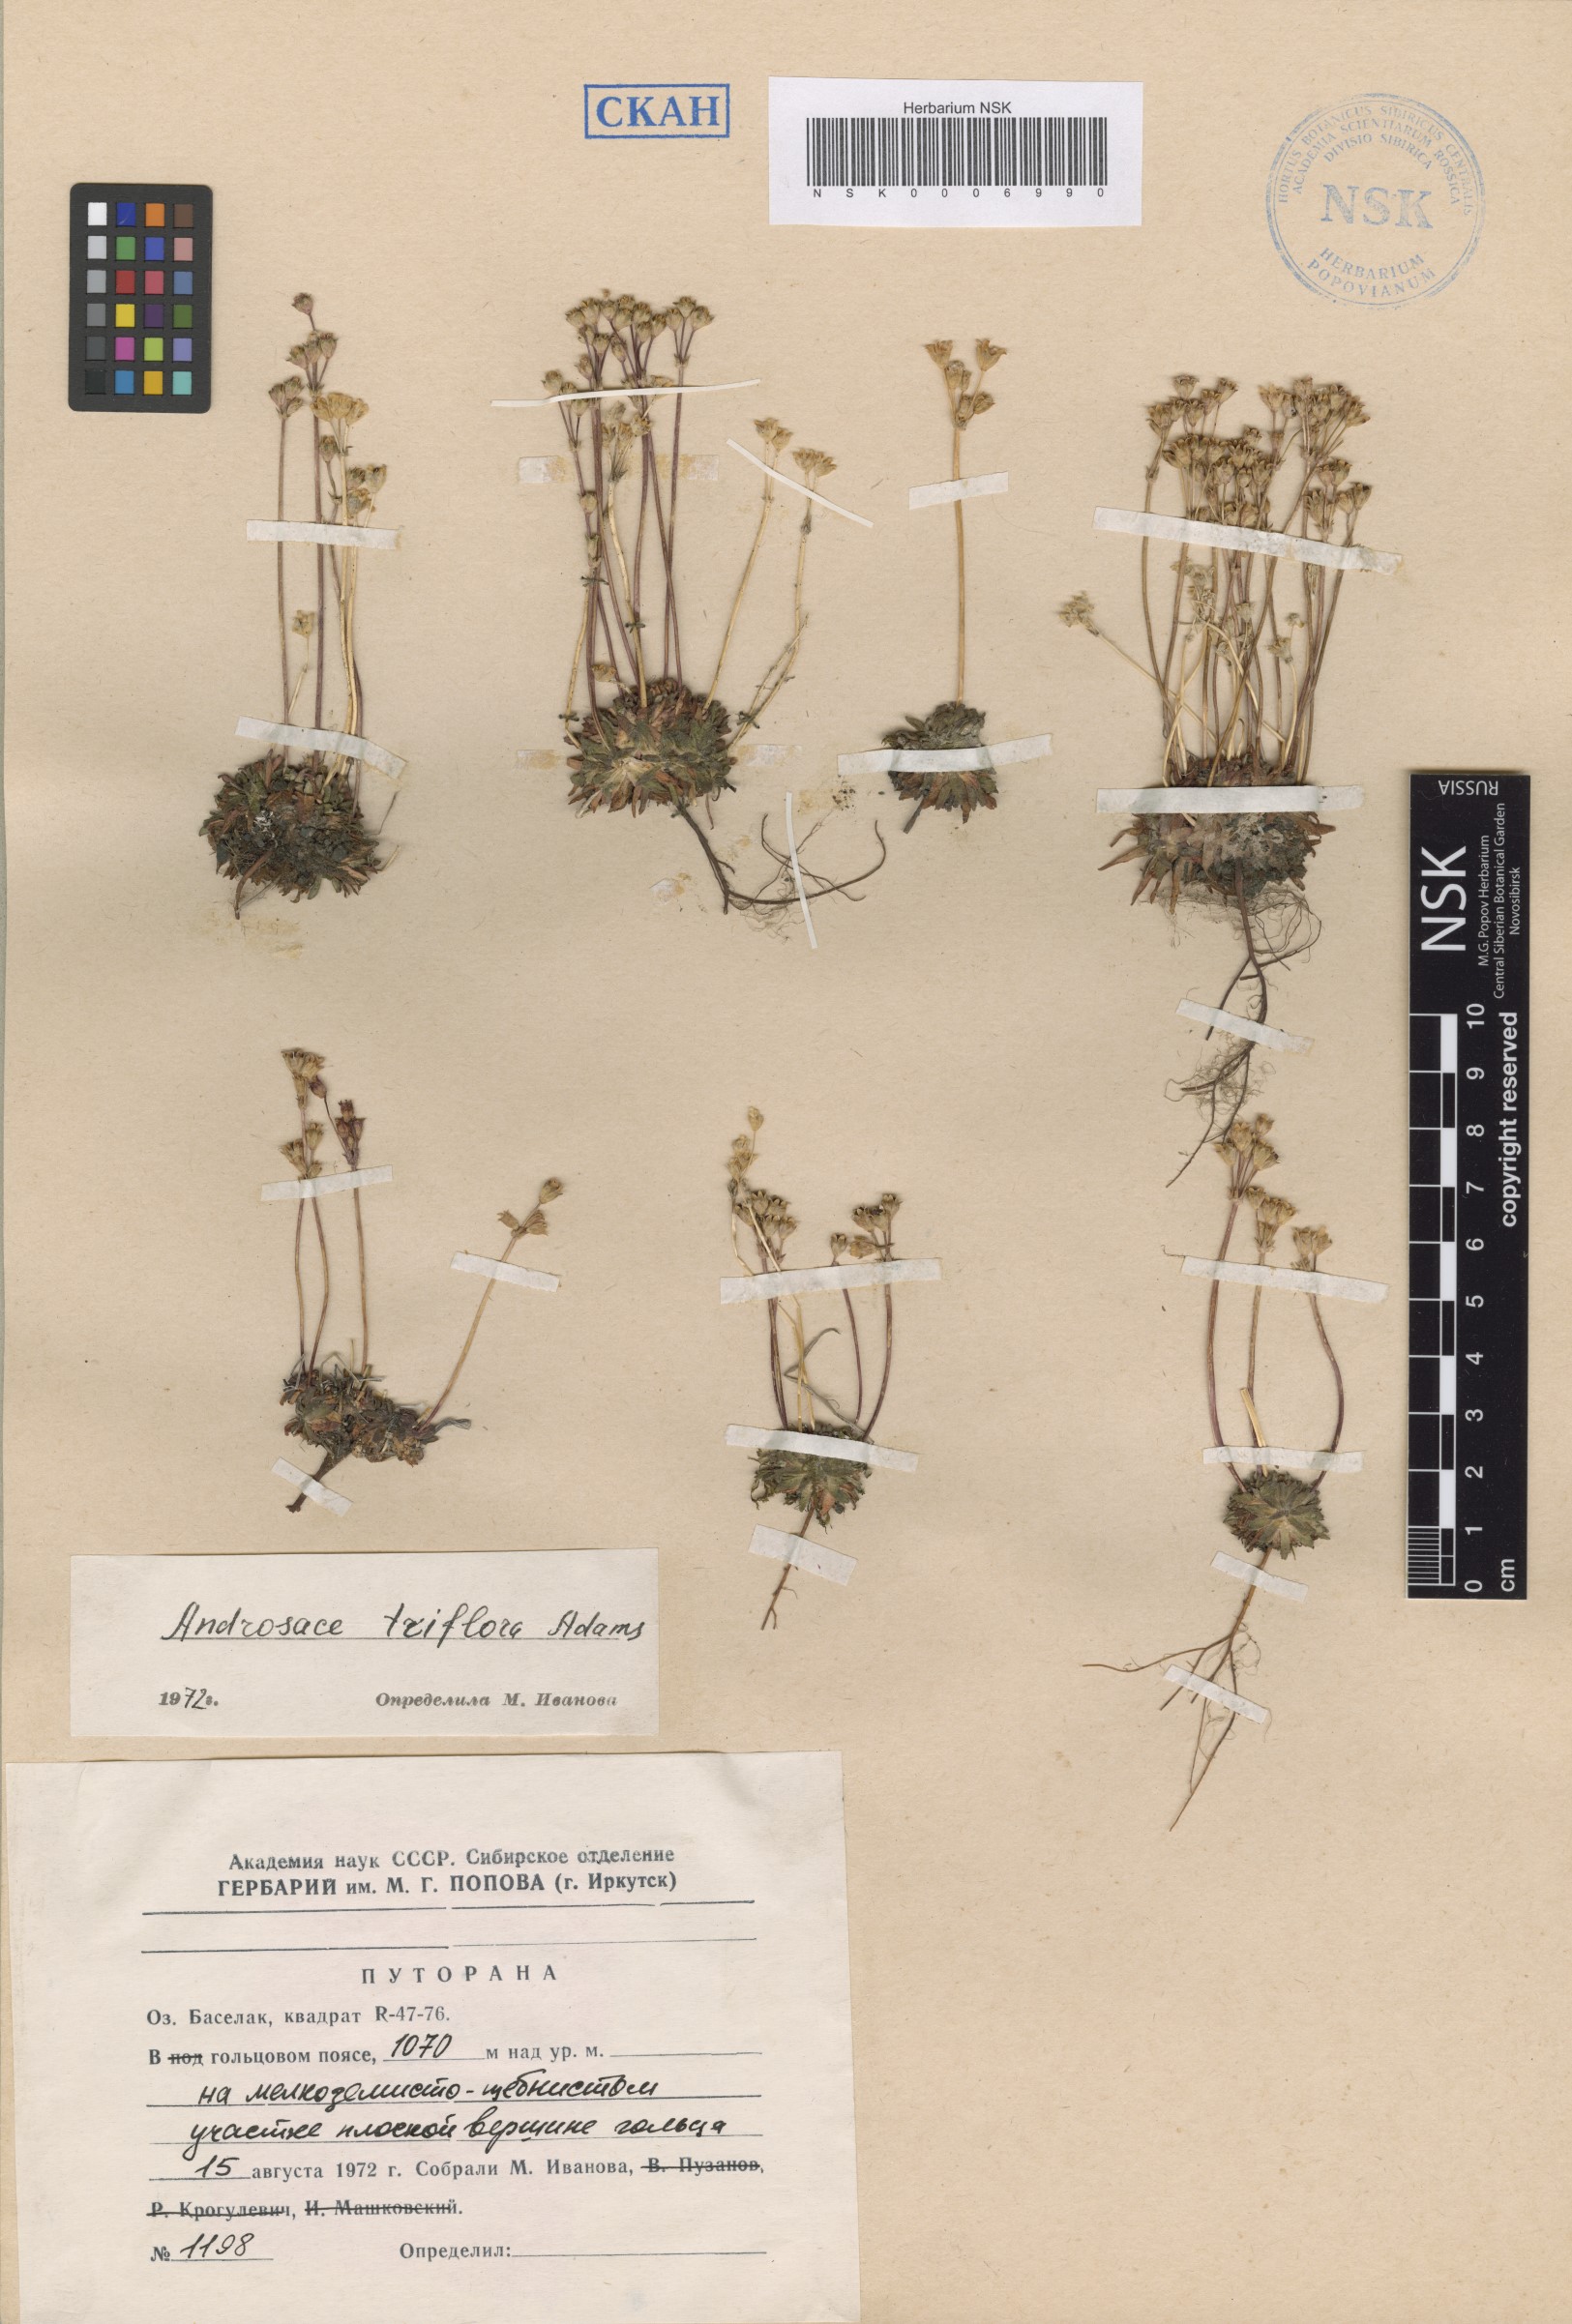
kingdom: Plantae
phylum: Tracheophyta
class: Magnoliopsida
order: Ericales
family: Primulaceae
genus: Androsace
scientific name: Androsace triflora
